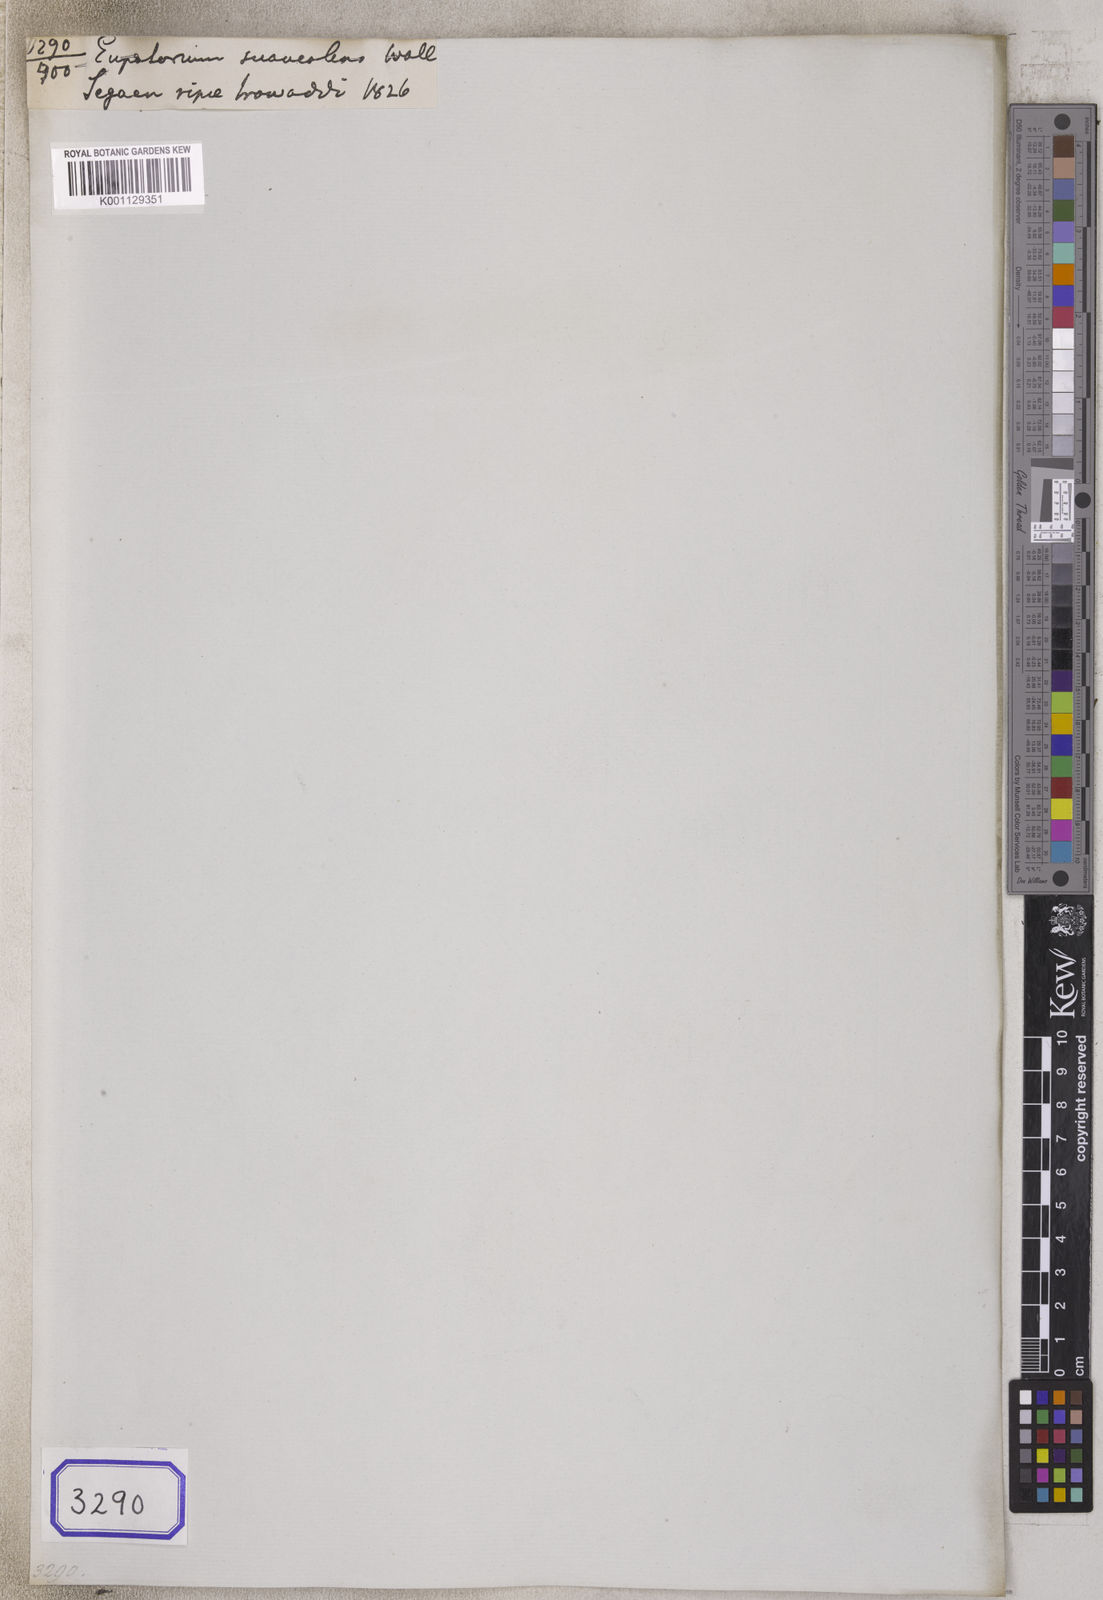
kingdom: Plantae
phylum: Tracheophyta
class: Magnoliopsida
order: Asterales
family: Asteraceae
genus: Eupatorium
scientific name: Eupatorium cannabinum
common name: Hemp-agrimony
